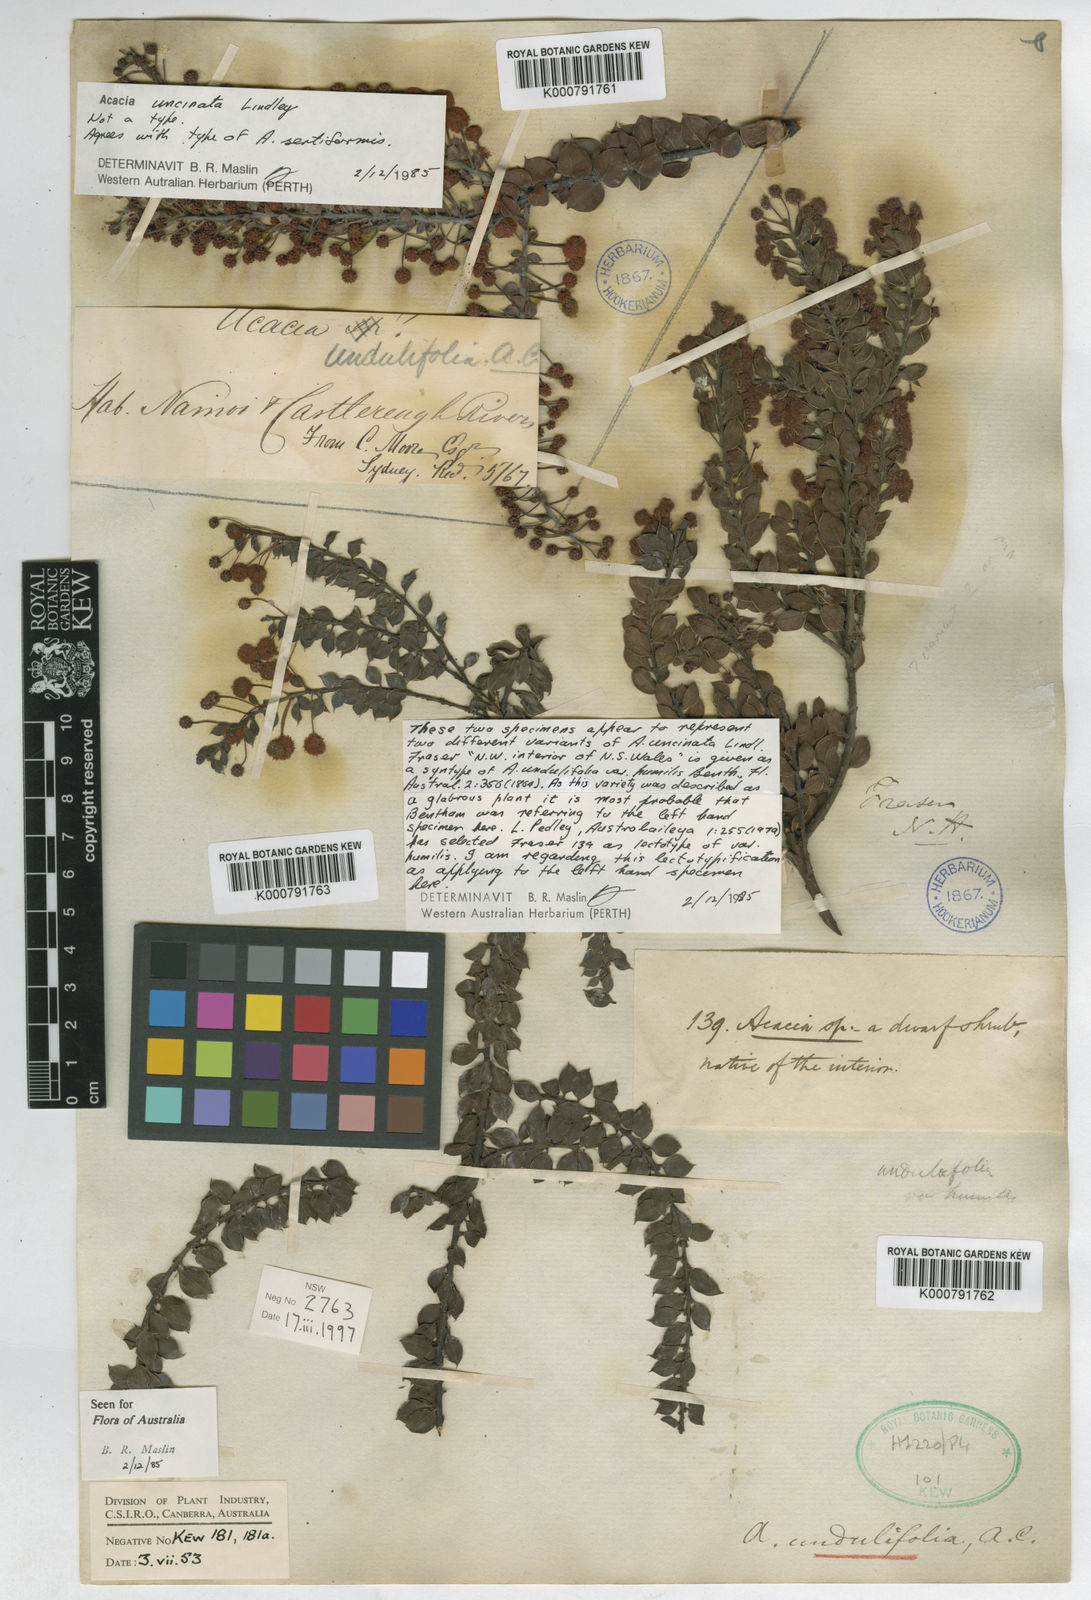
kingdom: Plantae
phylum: Tracheophyta
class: Magnoliopsida
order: Fabales
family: Fabaceae
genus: Acacia
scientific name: Acacia undulifolia
